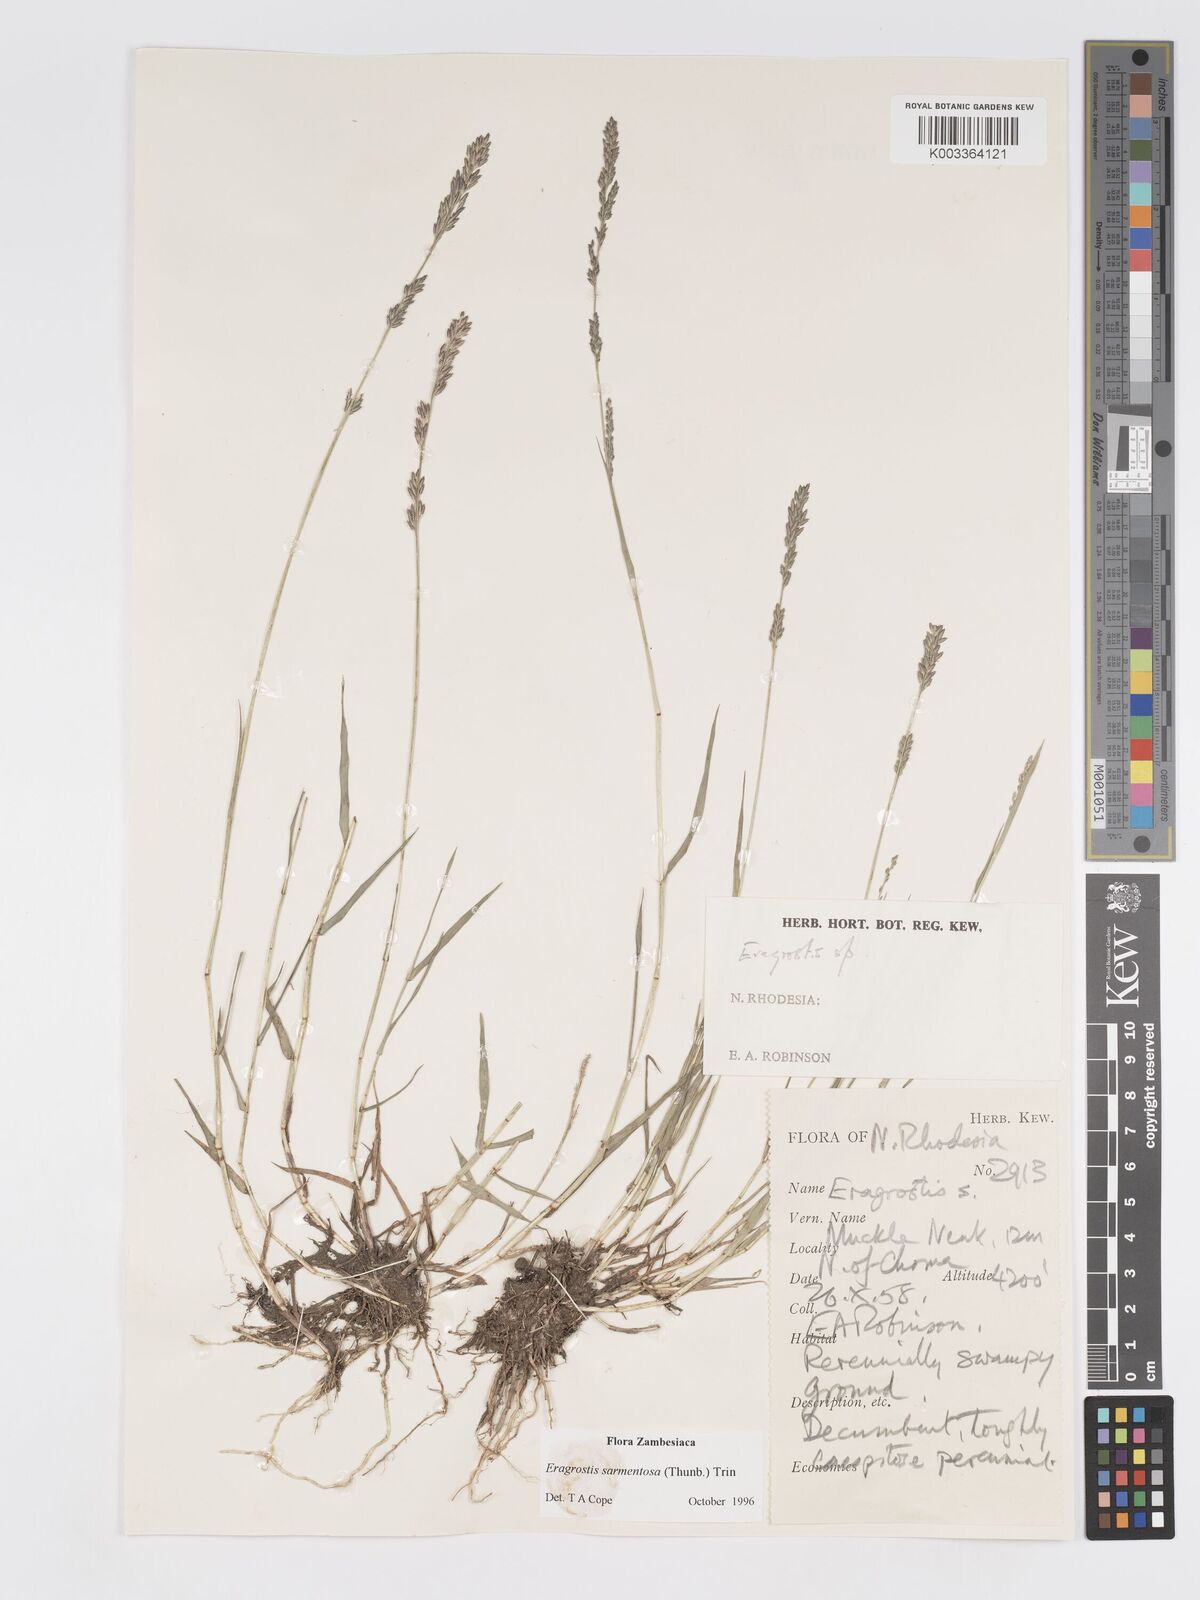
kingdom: Plantae
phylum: Tracheophyta
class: Liliopsida
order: Poales
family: Poaceae
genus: Eragrostis
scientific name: Eragrostis sarmentosa
